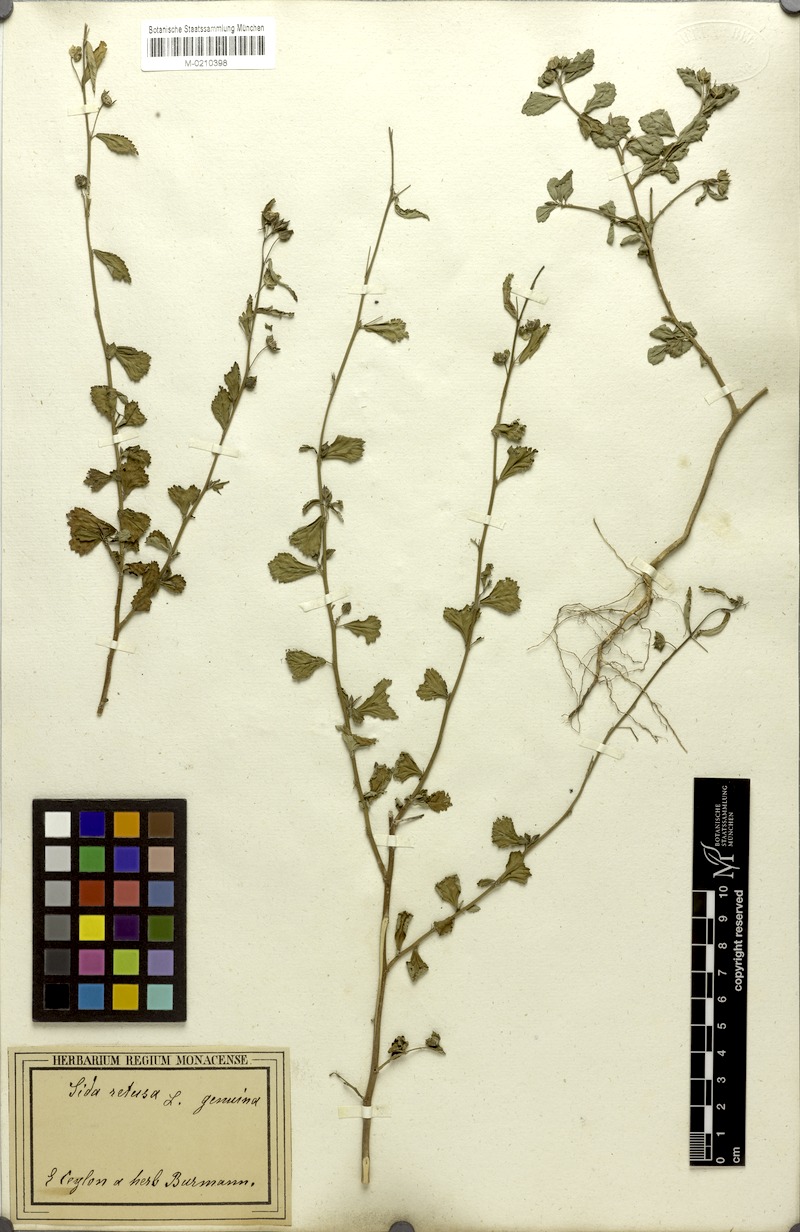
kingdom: Plantae
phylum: Tracheophyta
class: Magnoliopsida
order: Malvales
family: Malvaceae
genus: Sida
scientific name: Sida alnifolia
